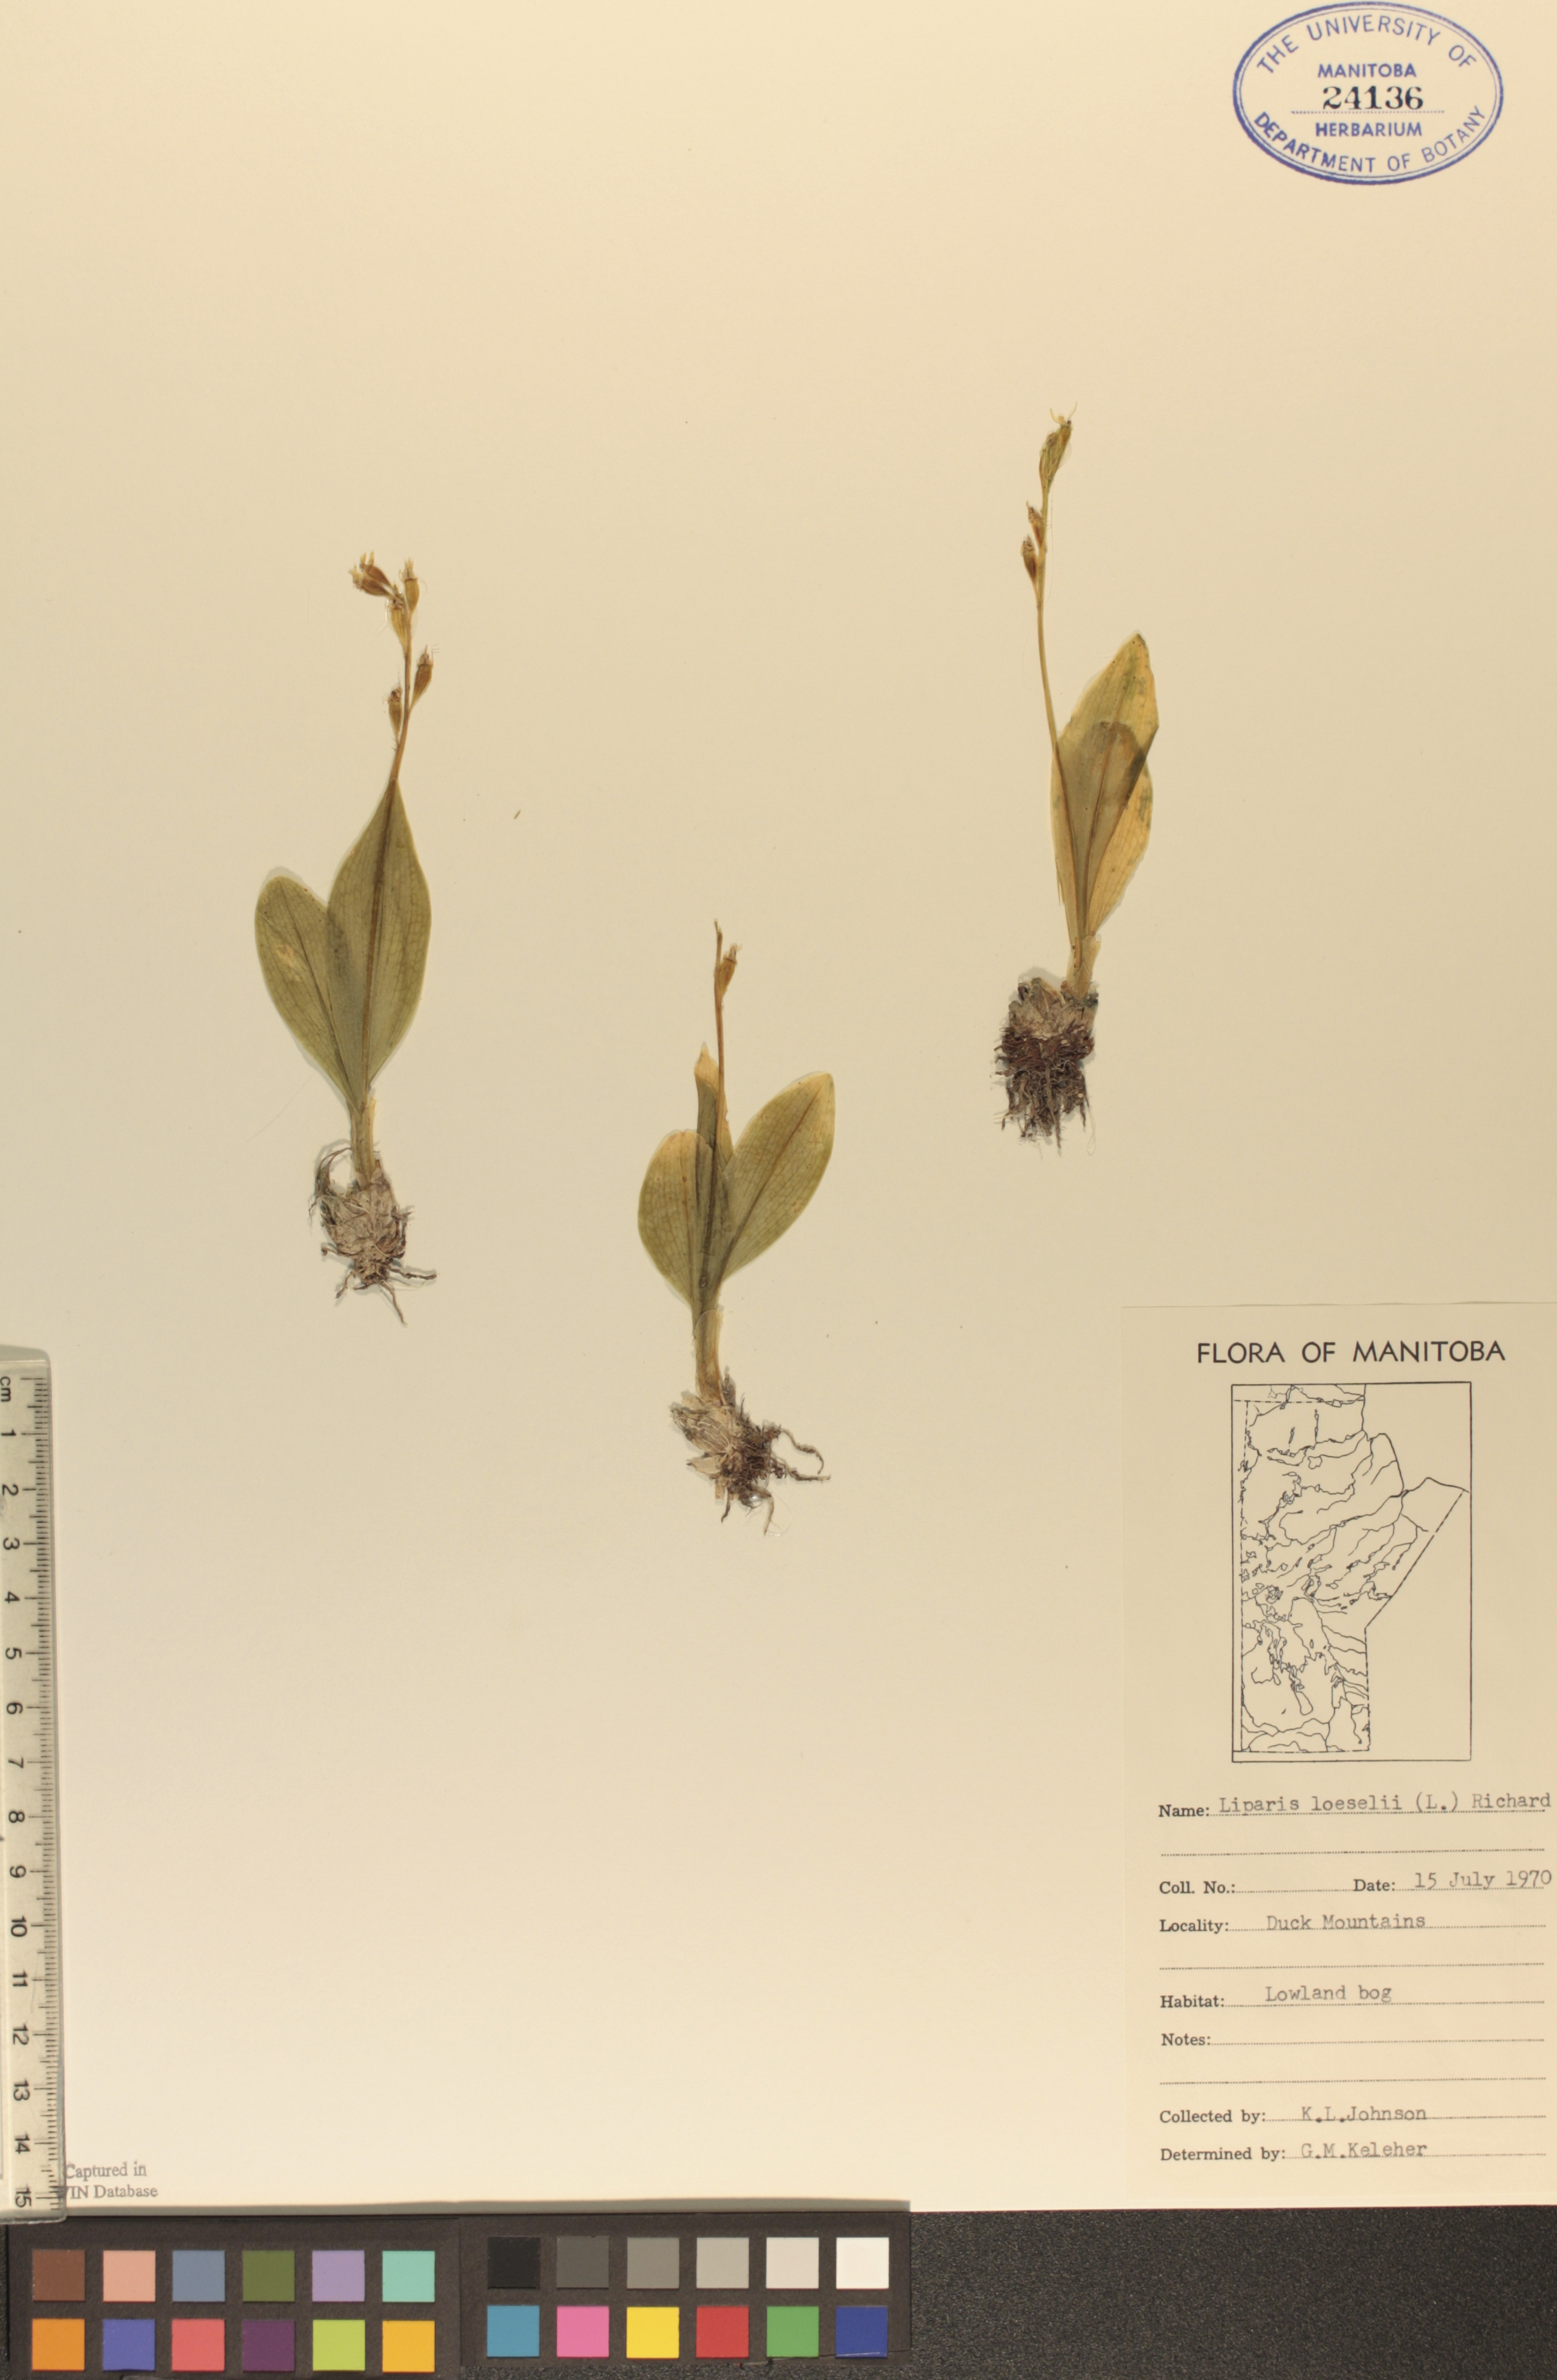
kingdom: Animalia
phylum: Arthropoda
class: Insecta
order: Coleoptera
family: Curculionidae
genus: Liparis
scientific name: Liparis loeselii
